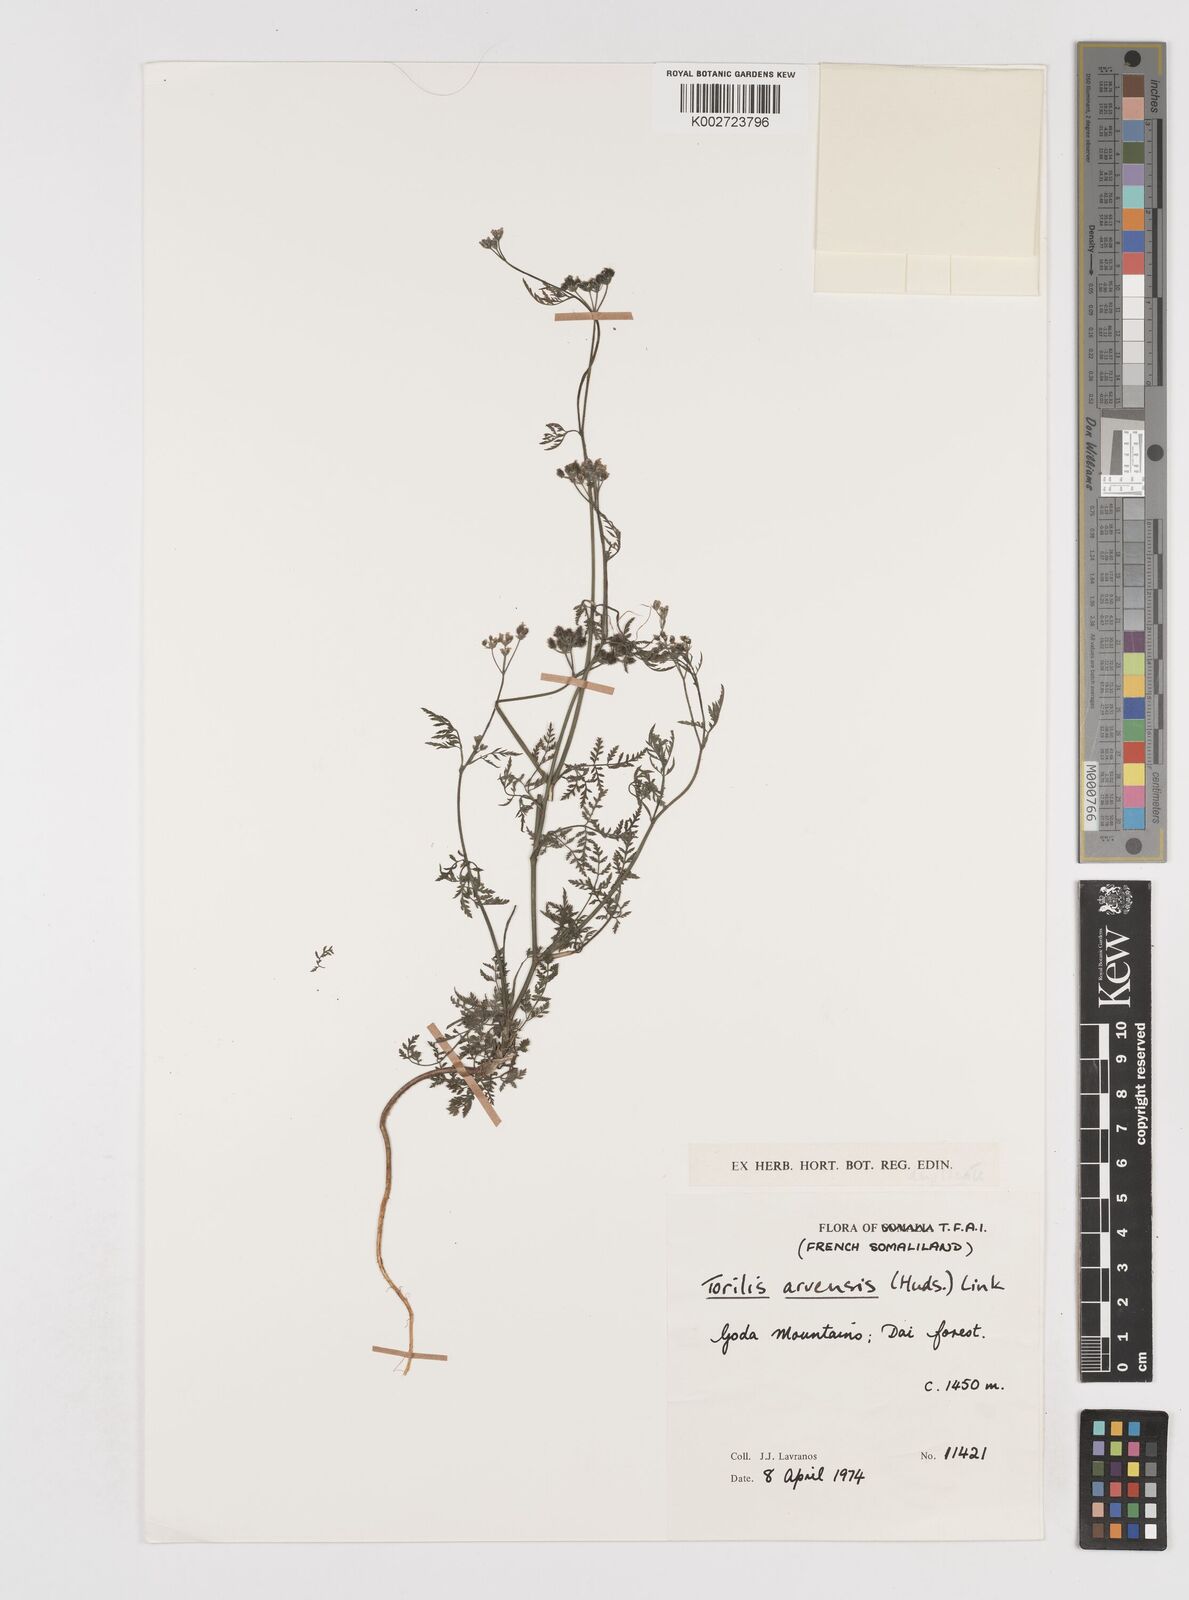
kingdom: Plantae
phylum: Tracheophyta
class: Magnoliopsida
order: Apiales
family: Apiaceae
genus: Torilis
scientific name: Torilis arvensis
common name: Spreading hedge-parsley
